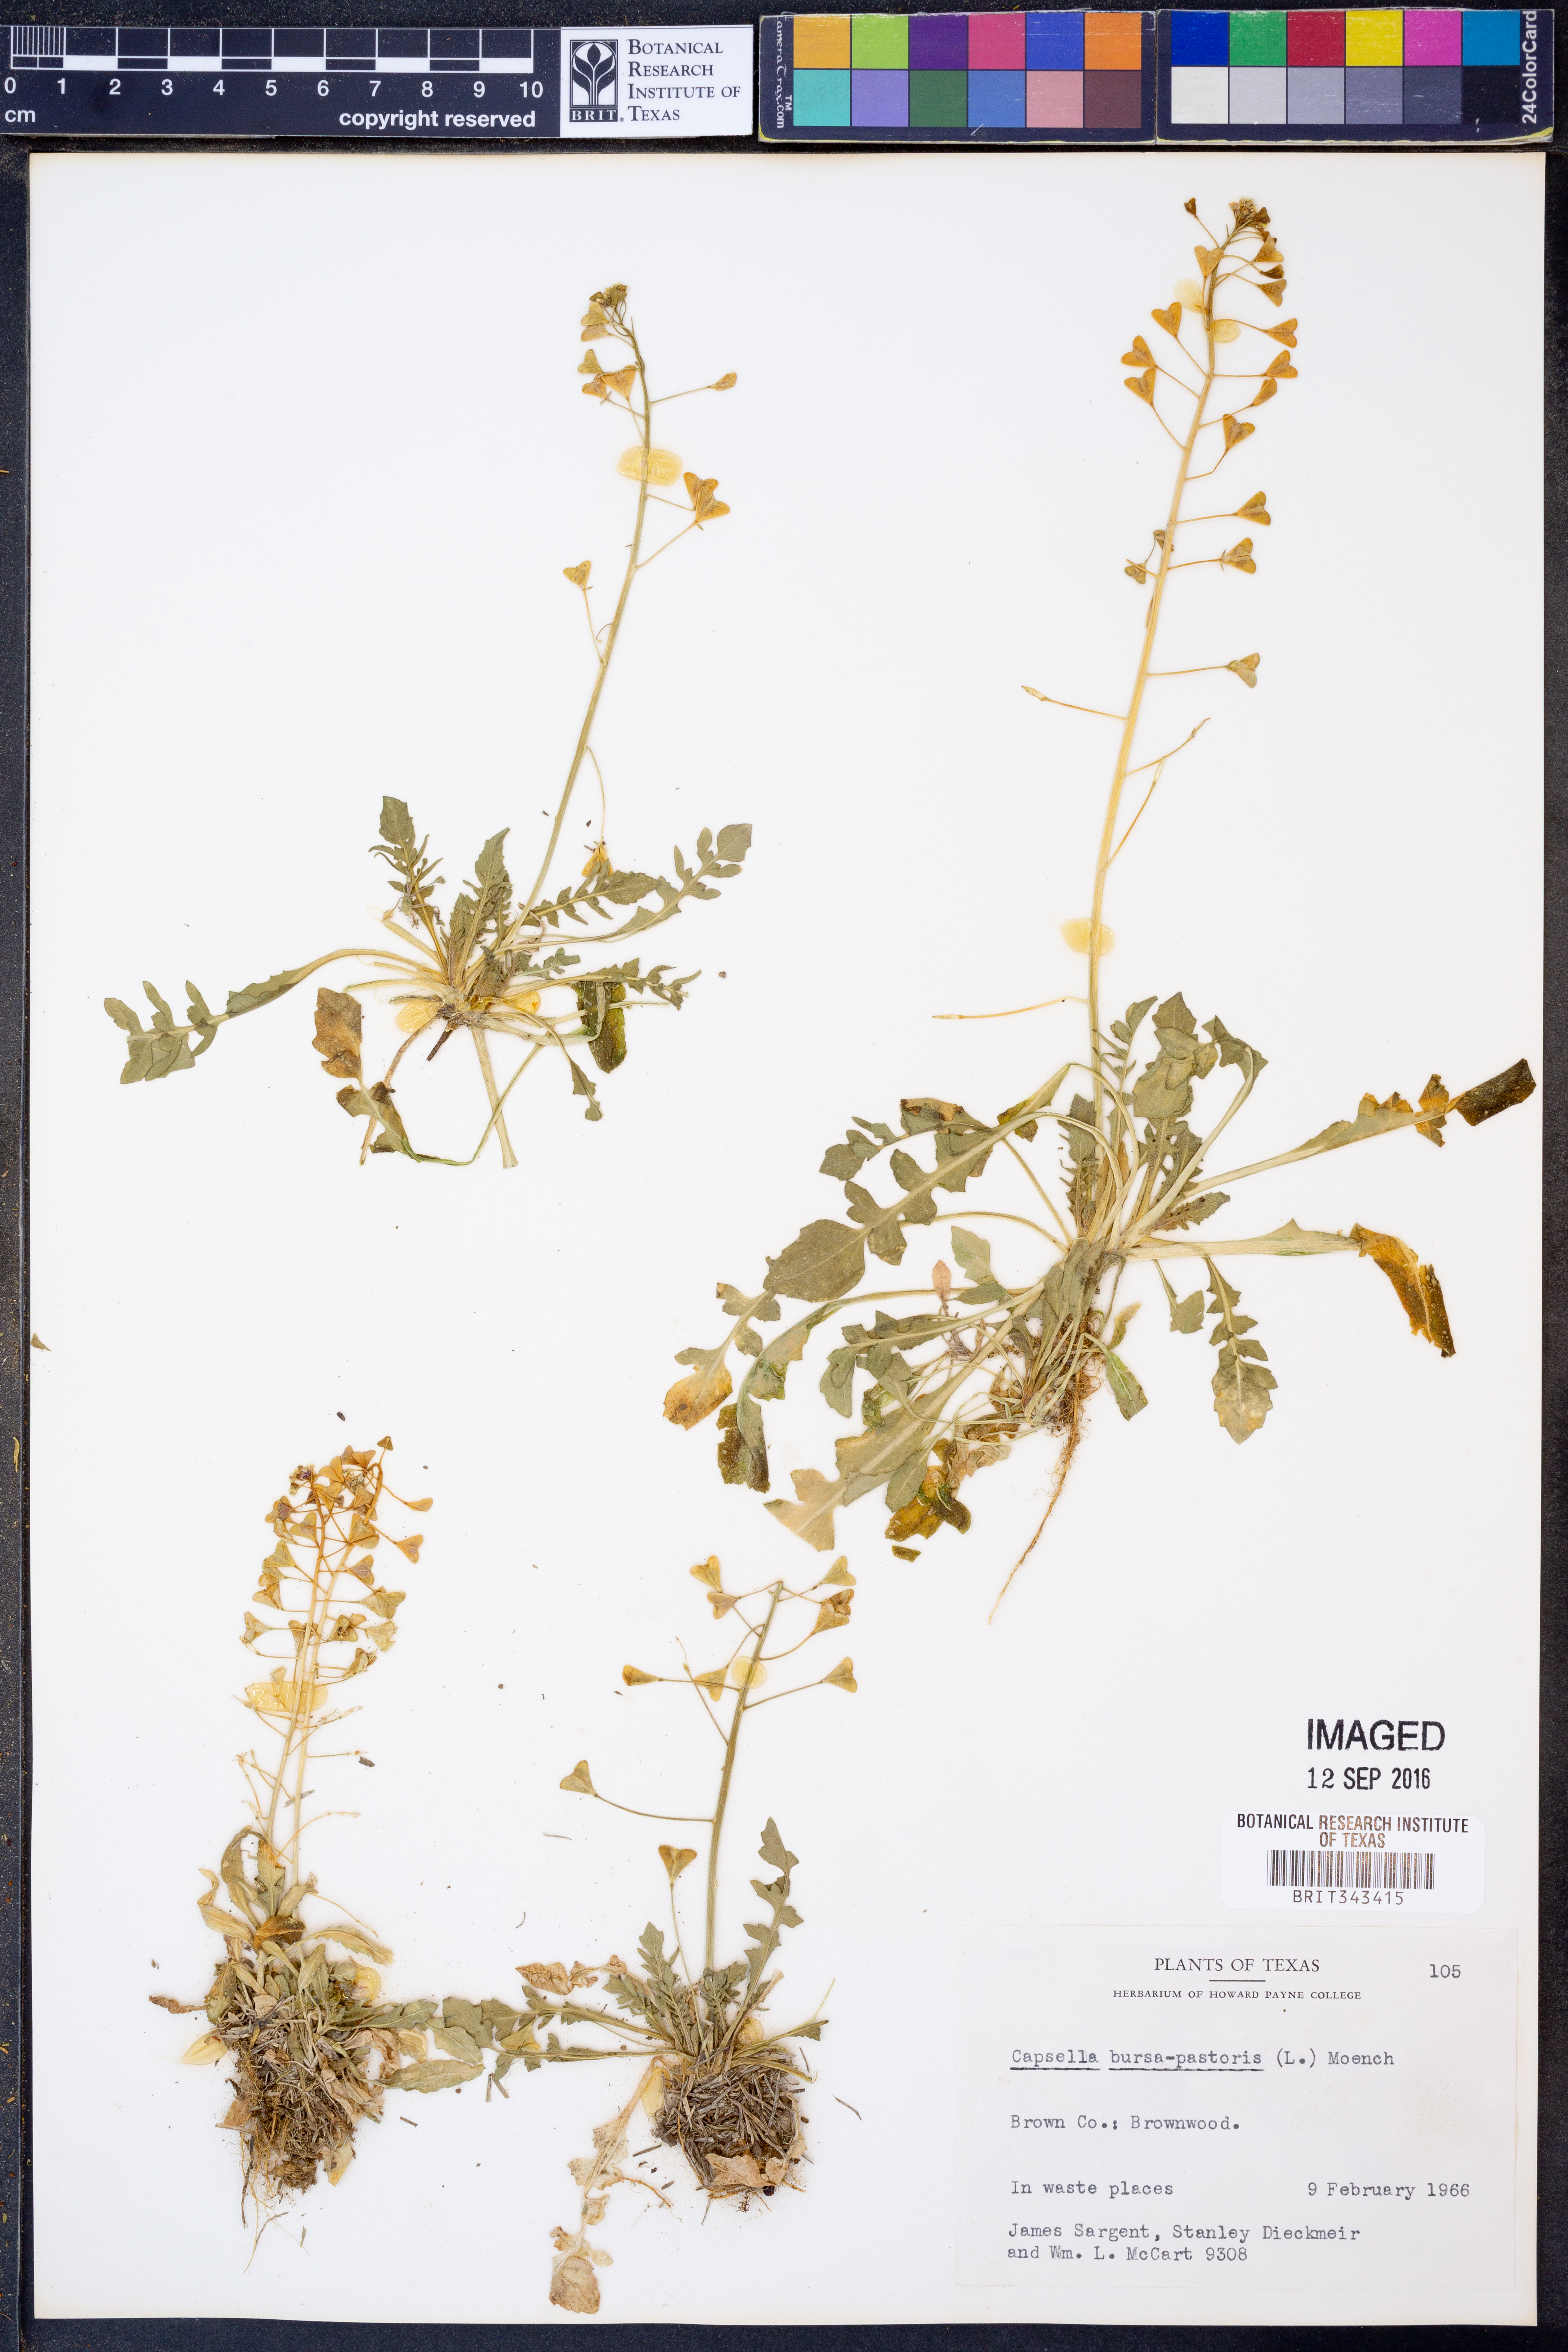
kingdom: Plantae
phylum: Tracheophyta
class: Magnoliopsida
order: Brassicales
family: Brassicaceae
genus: Capsella
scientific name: Capsella bursa-pastoris
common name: Shepherd's purse
